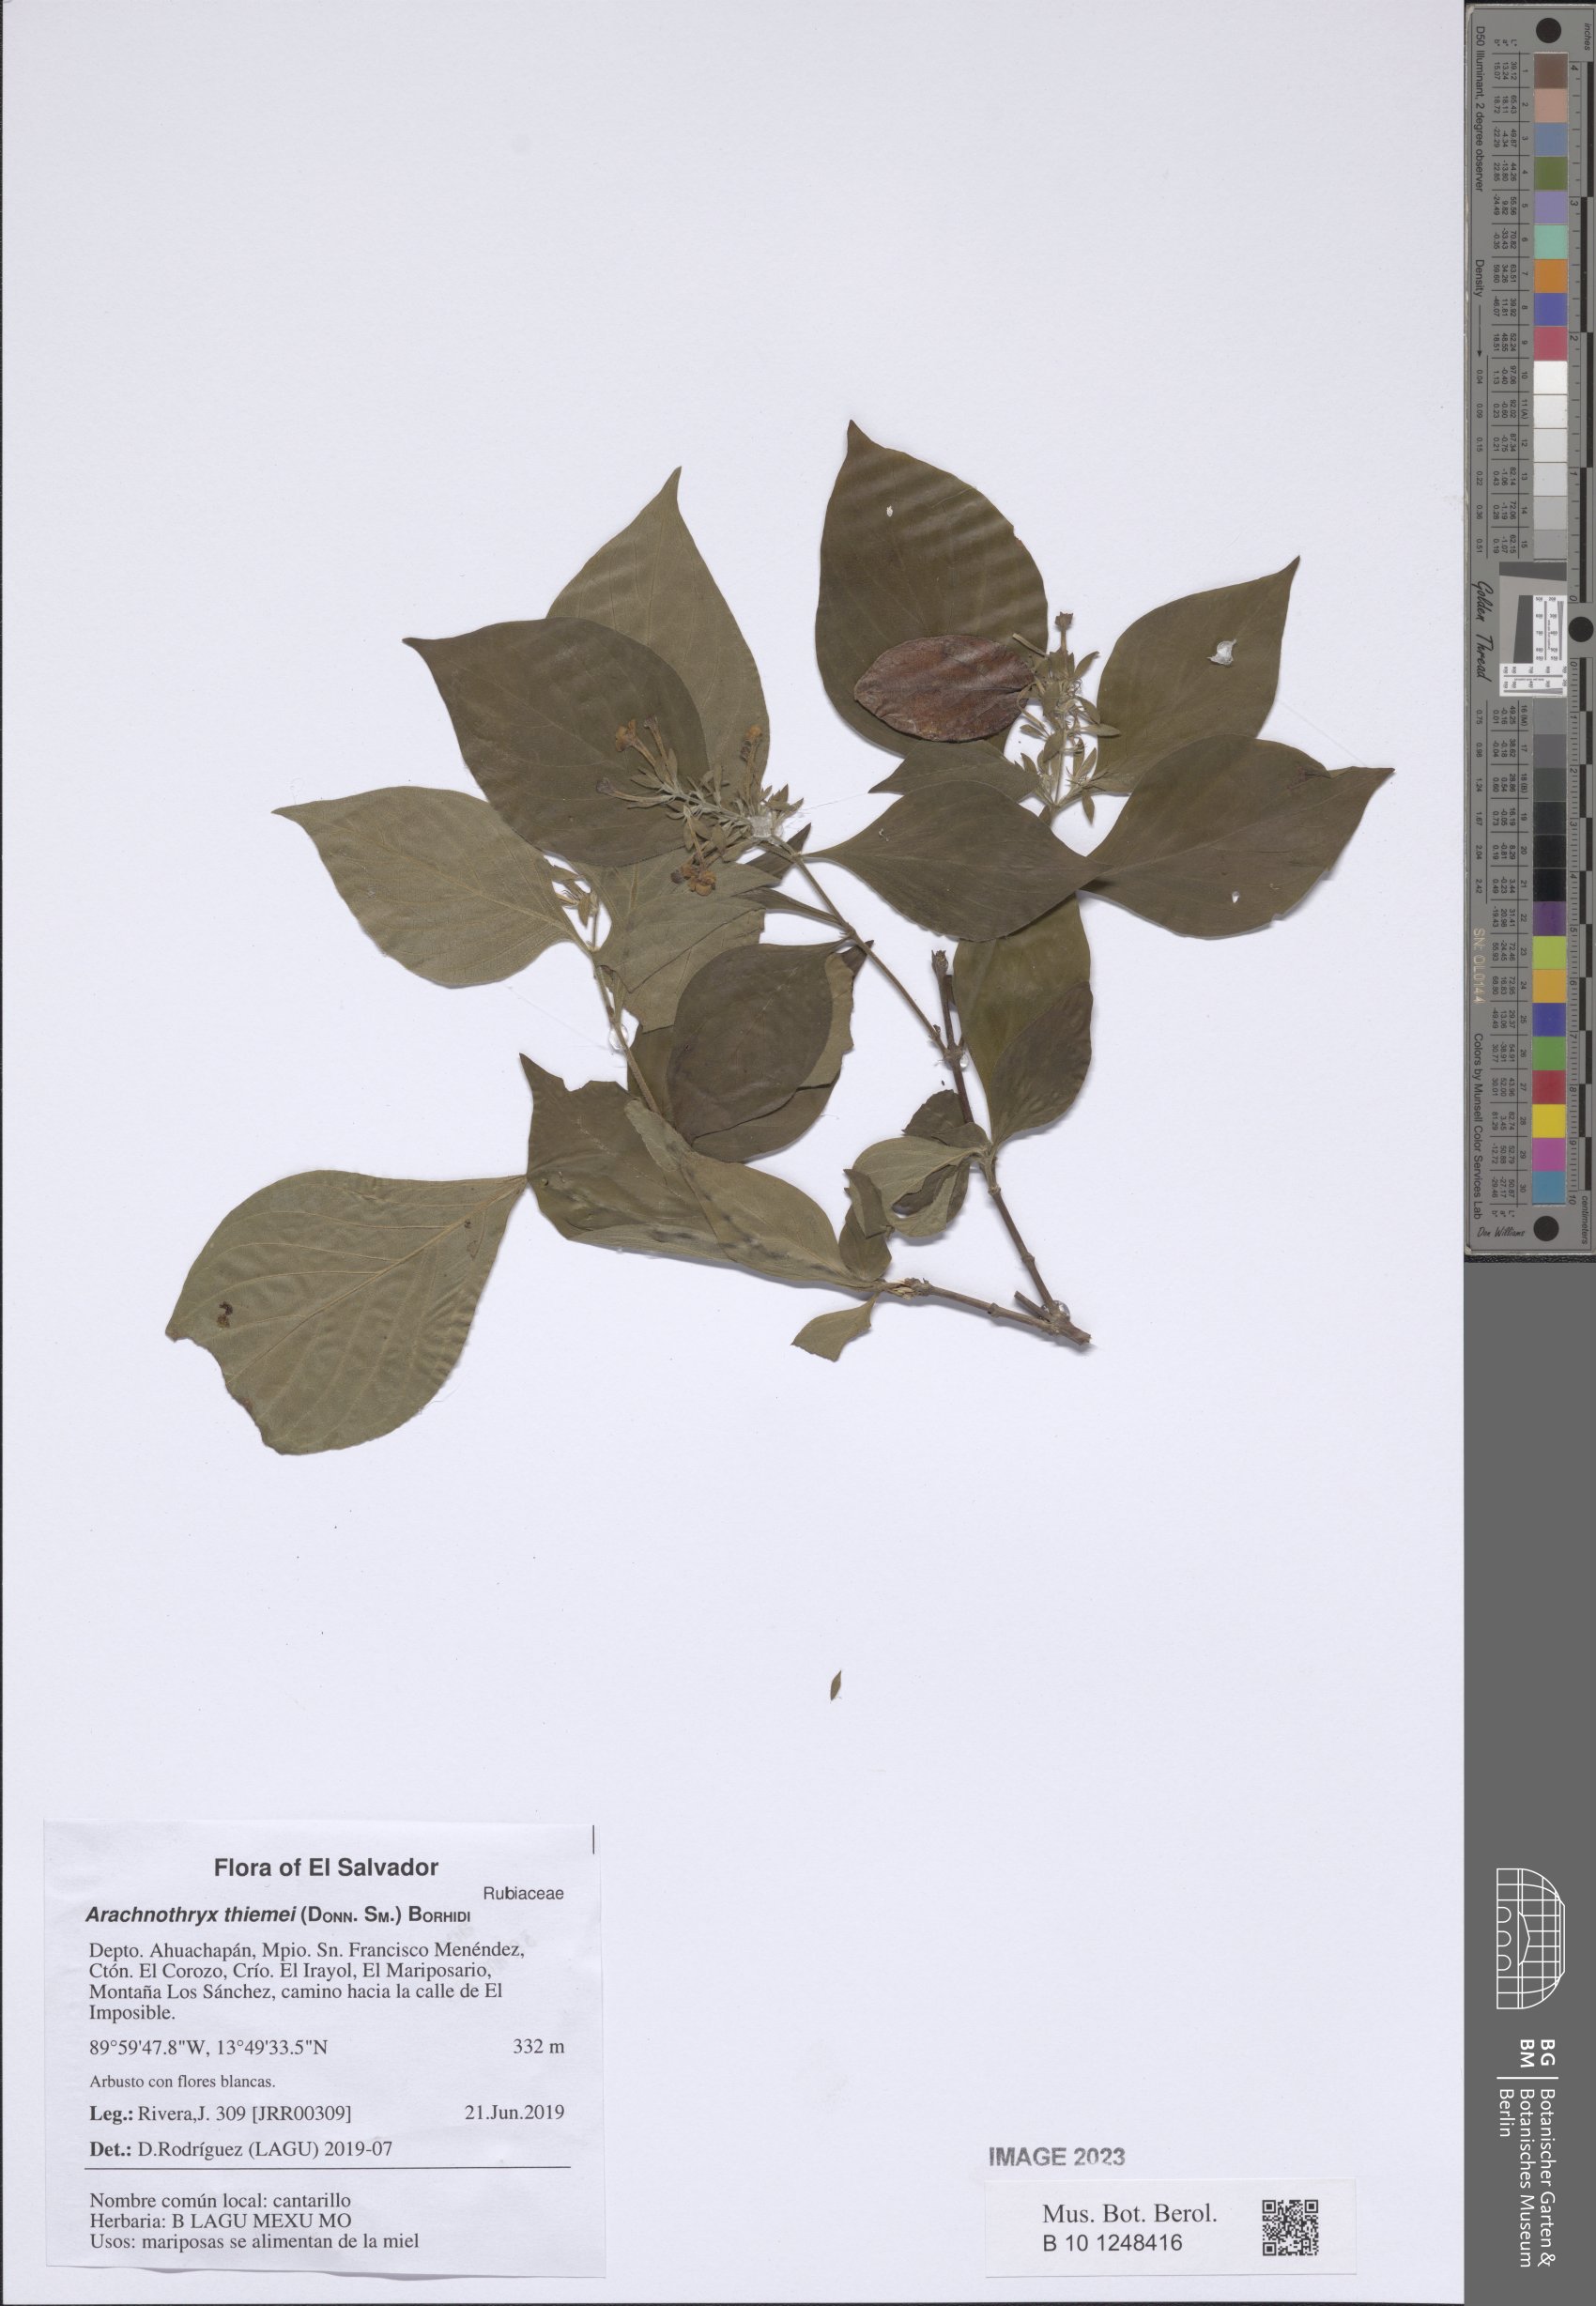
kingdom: Plantae
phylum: Tracheophyta
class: Magnoliopsida
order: Gentianales
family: Rubiaceae
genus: Arachnothryx
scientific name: Arachnothryx thiemei
